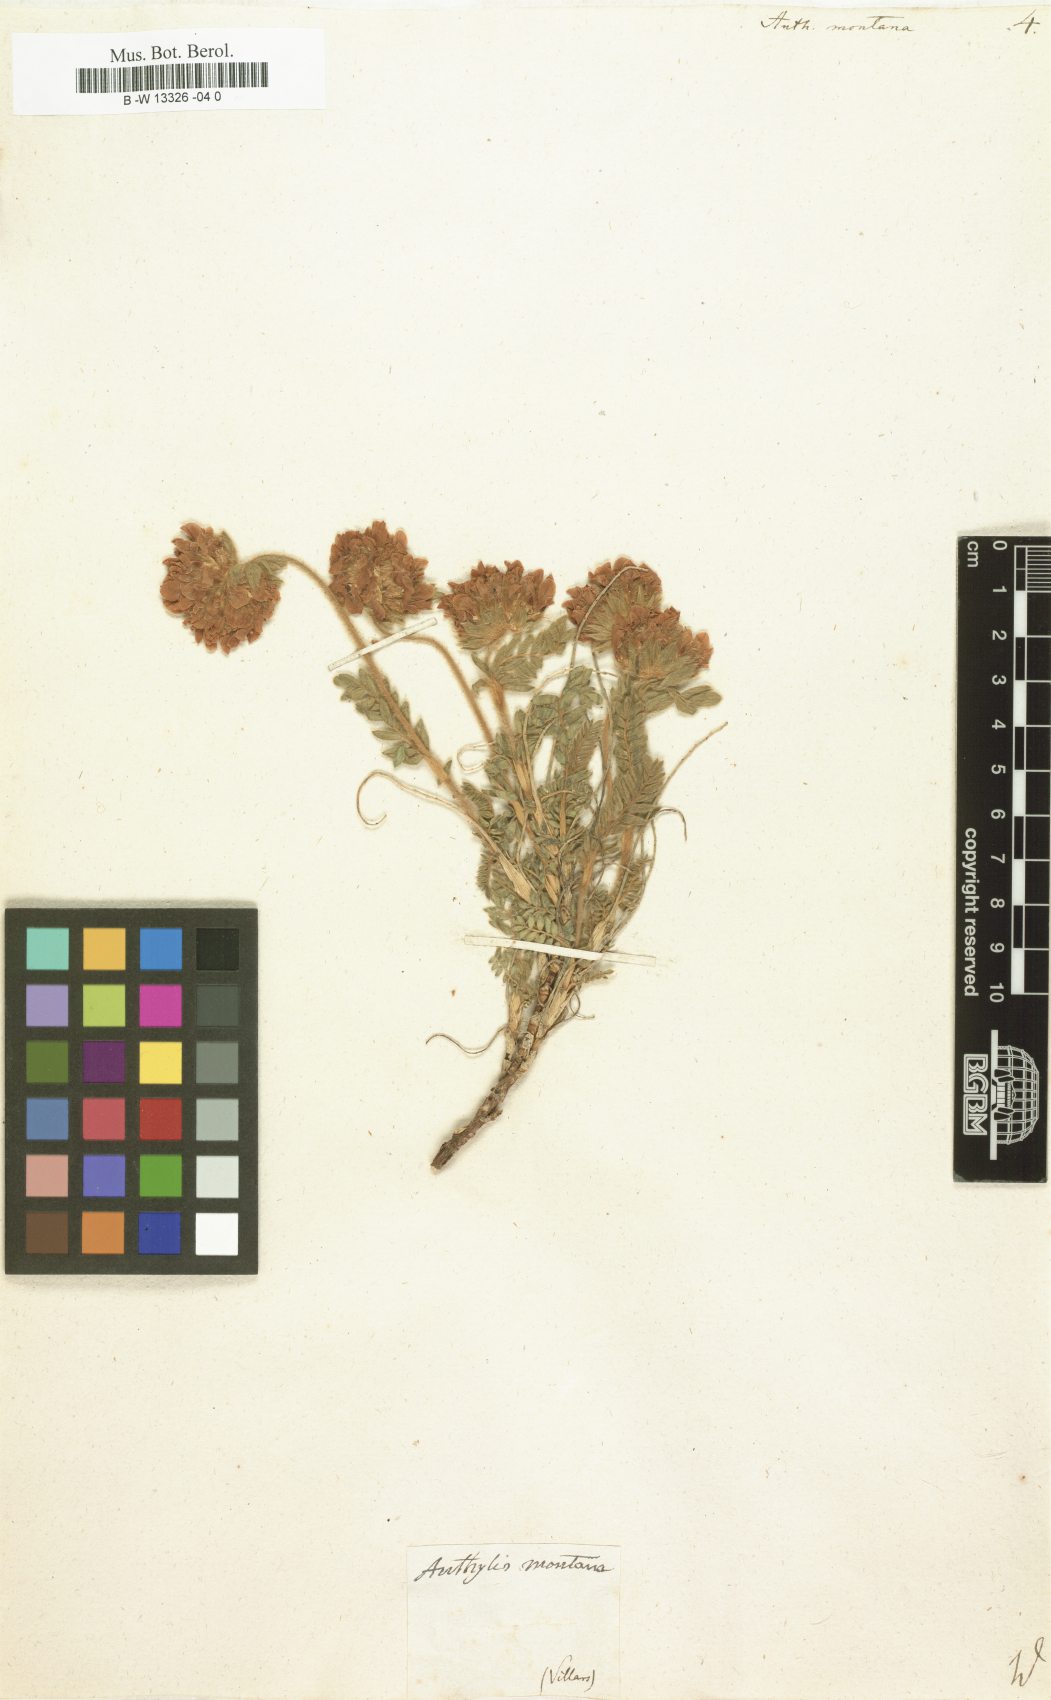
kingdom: Plantae
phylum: Tracheophyta
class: Magnoliopsida
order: Fabales
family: Fabaceae
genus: Anthyllis
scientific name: Anthyllis montana
